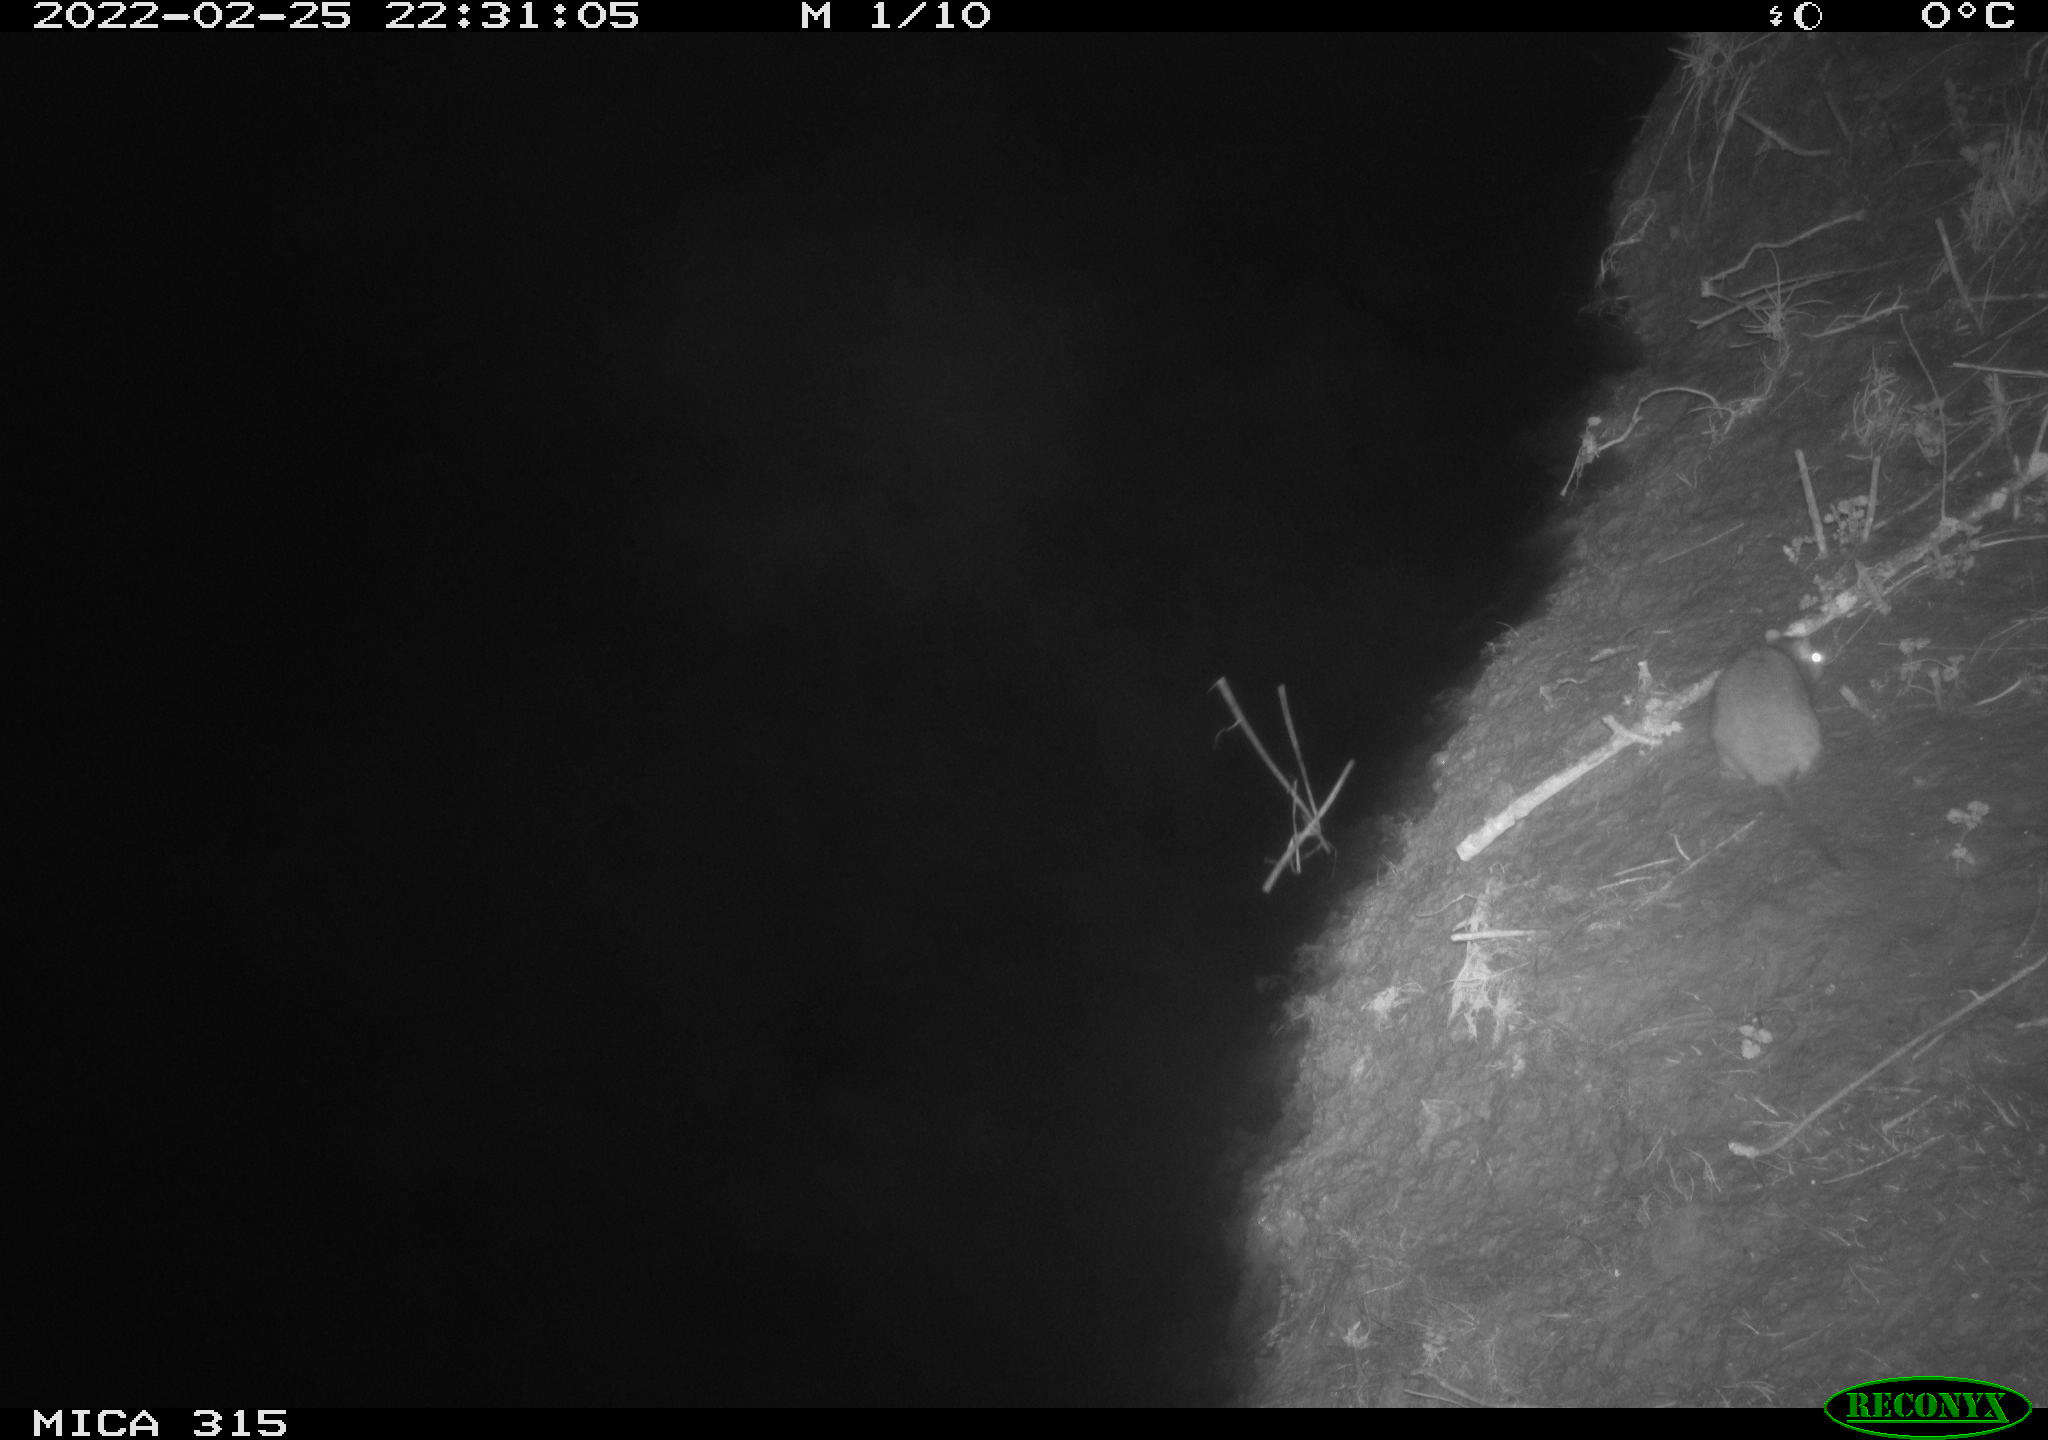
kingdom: Animalia
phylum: Chordata
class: Mammalia
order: Rodentia
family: Muridae
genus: Rattus
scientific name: Rattus norvegicus
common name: Brown rat
